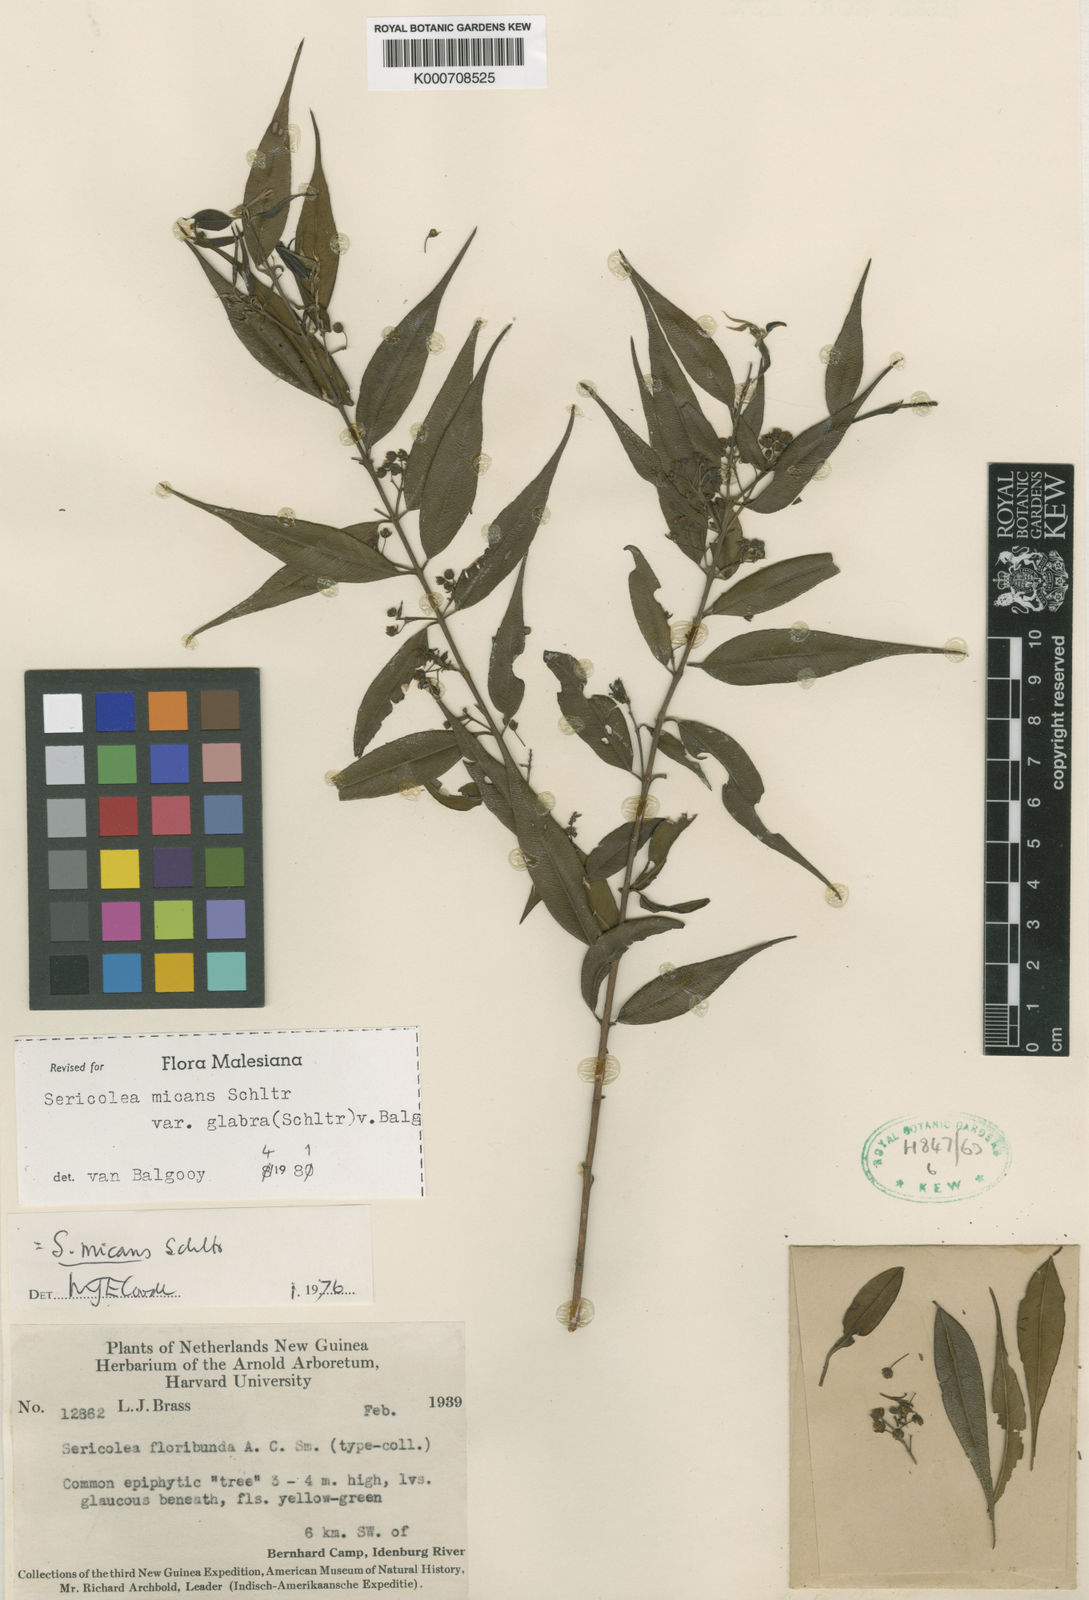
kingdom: Plantae
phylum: Tracheophyta
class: Magnoliopsida
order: Oxalidales
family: Elaeocarpaceae
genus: Sericolea
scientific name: Sericolea micans
